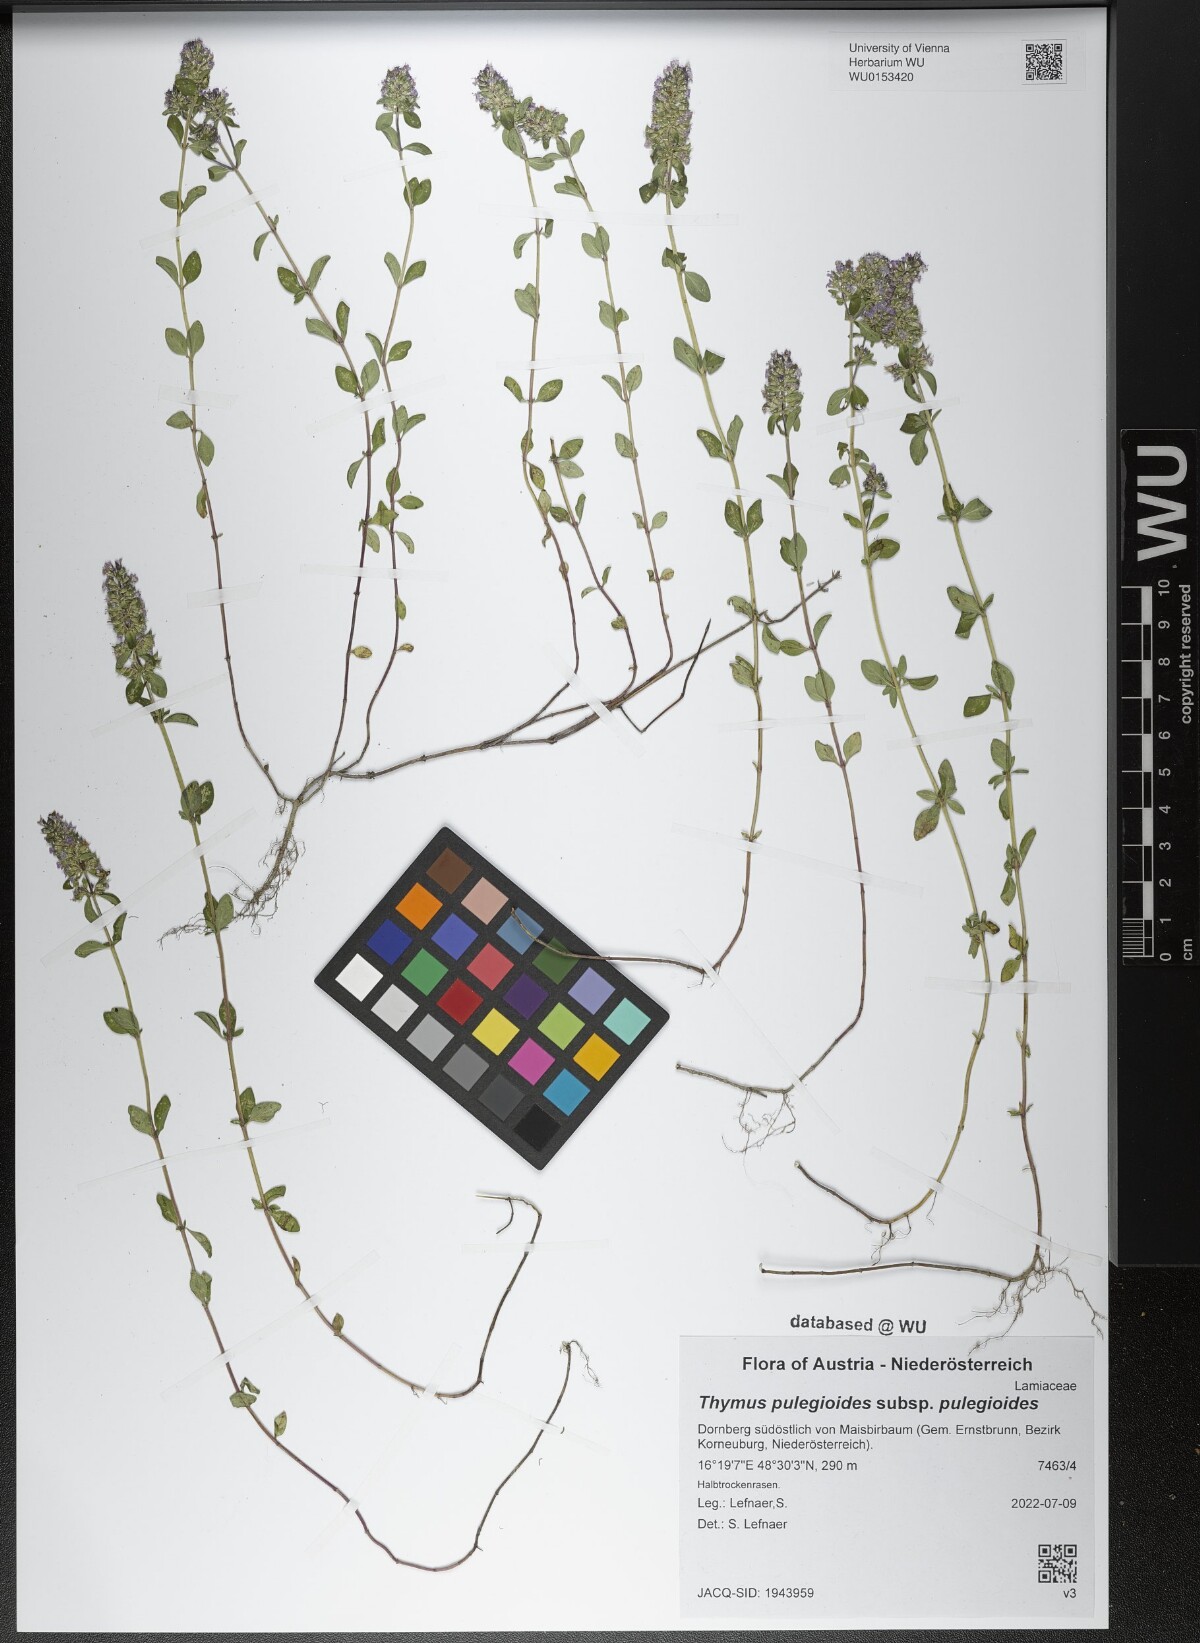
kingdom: Plantae
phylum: Tracheophyta
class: Magnoliopsida
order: Lamiales
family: Lamiaceae
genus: Thymus
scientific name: Thymus pulegioides
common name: Large thyme
